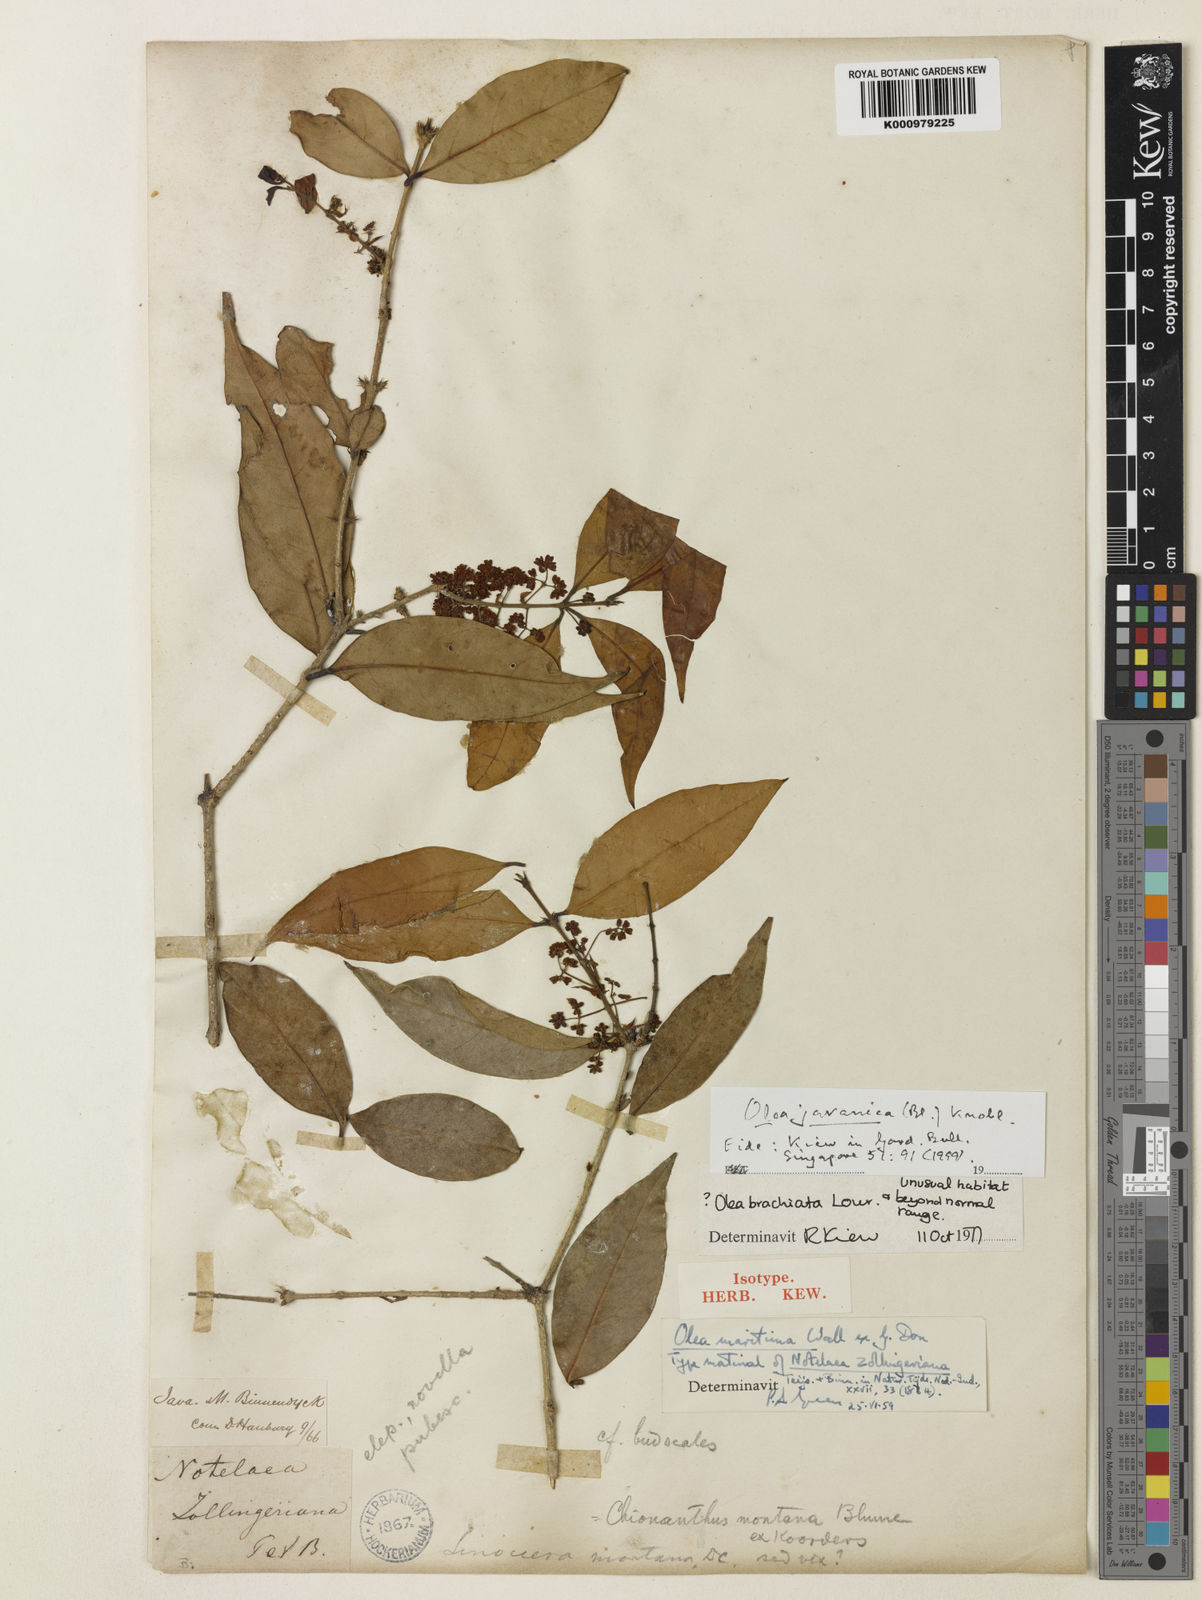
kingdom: Plantae
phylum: Tracheophyta
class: Magnoliopsida
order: Lamiales
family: Oleaceae
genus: Tetrapilus
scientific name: Tetrapilus javanicus
